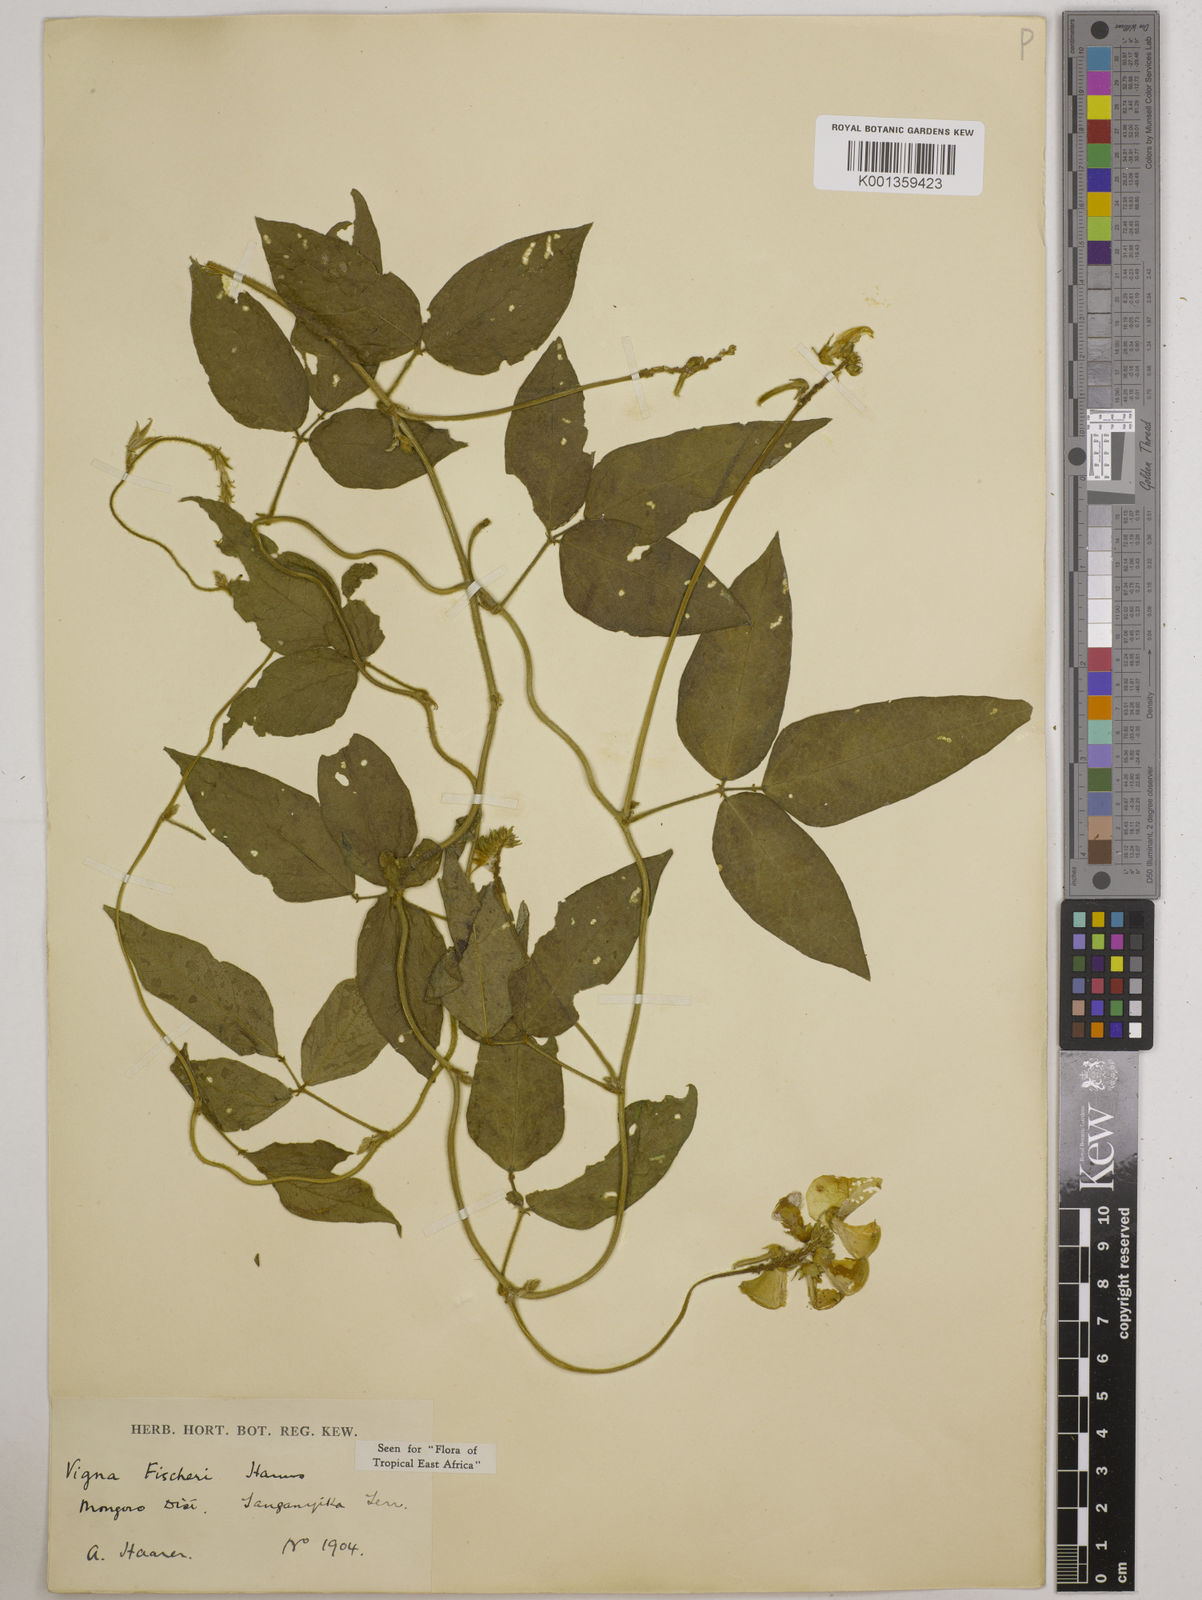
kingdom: Plantae
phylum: Tracheophyta
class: Magnoliopsida
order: Fabales
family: Fabaceae
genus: Vigna
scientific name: Vigna fischeri
